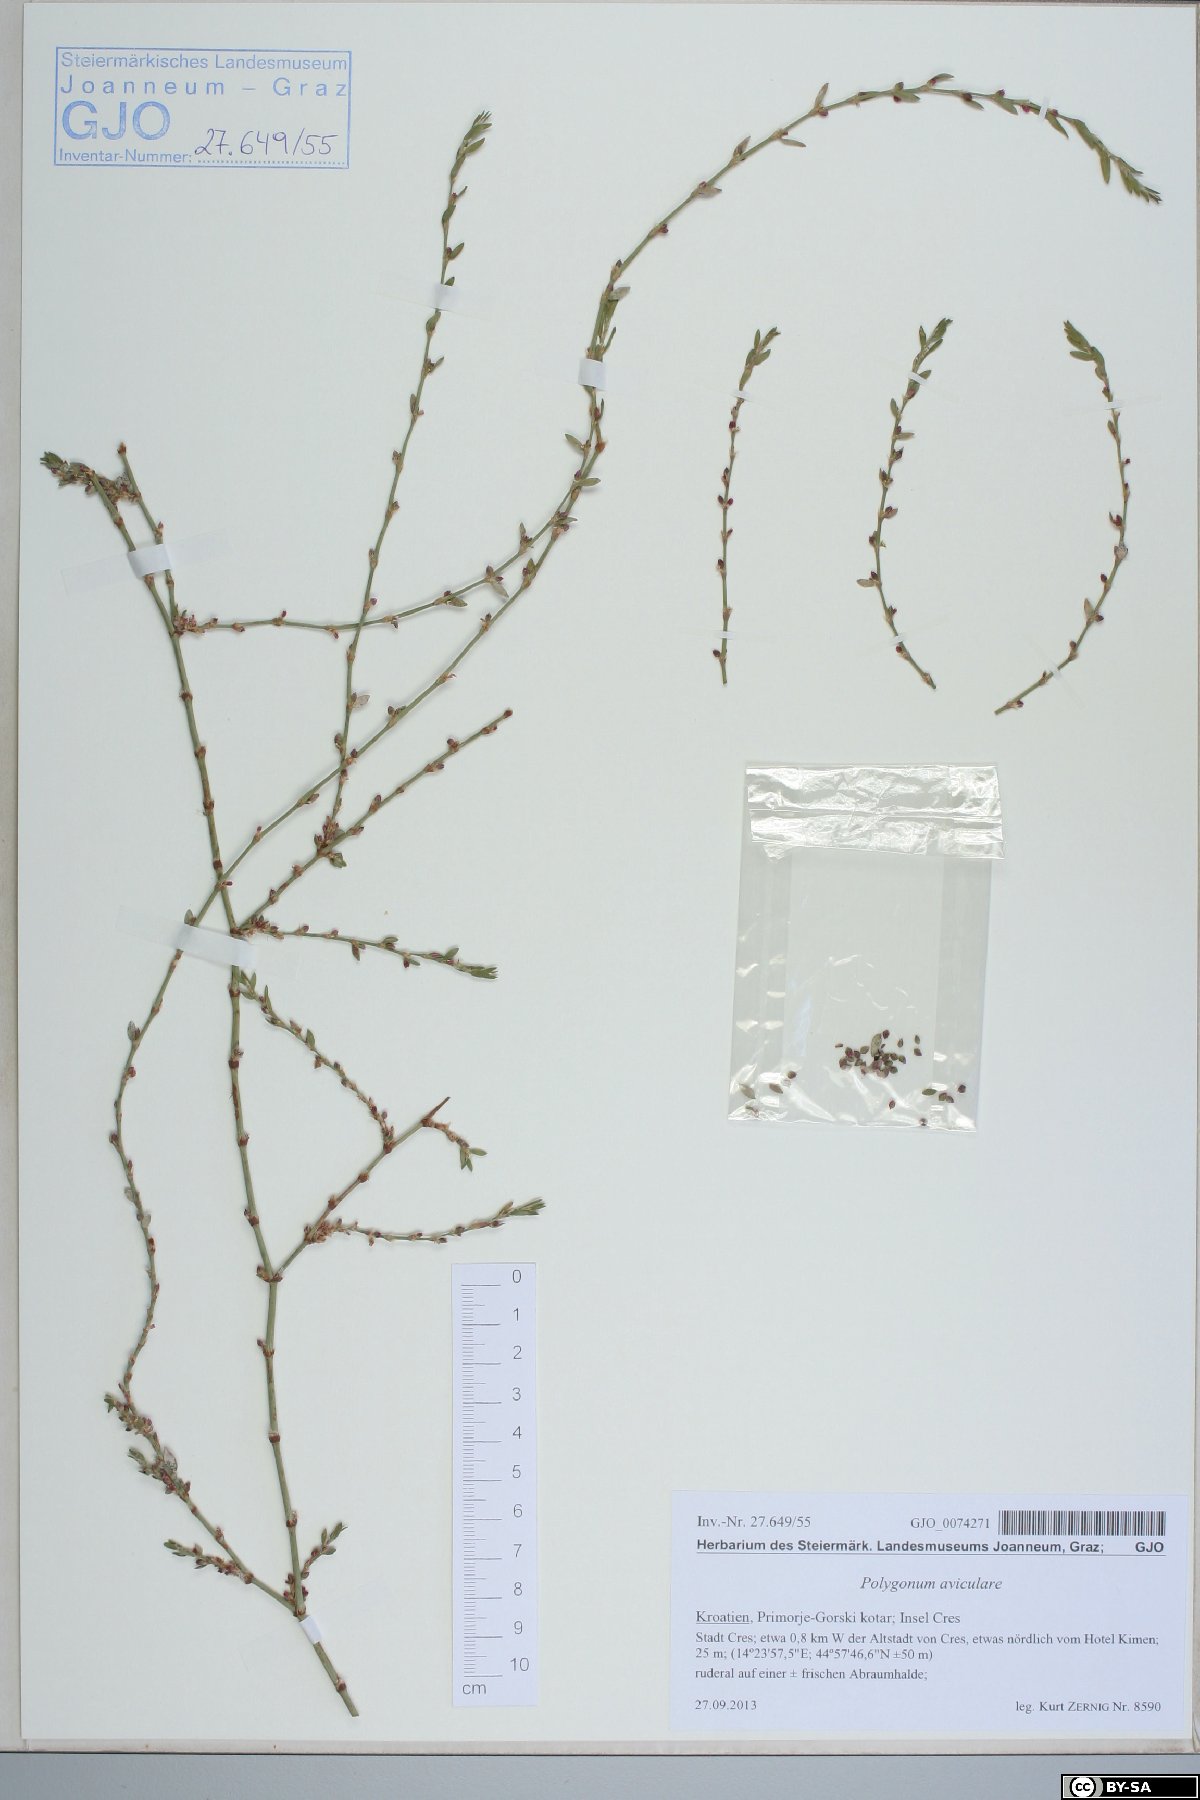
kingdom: Plantae
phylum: Tracheophyta
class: Magnoliopsida
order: Caryophyllales
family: Polygonaceae
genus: Polygonum
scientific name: Polygonum aviculare
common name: Prostrate knotweed
